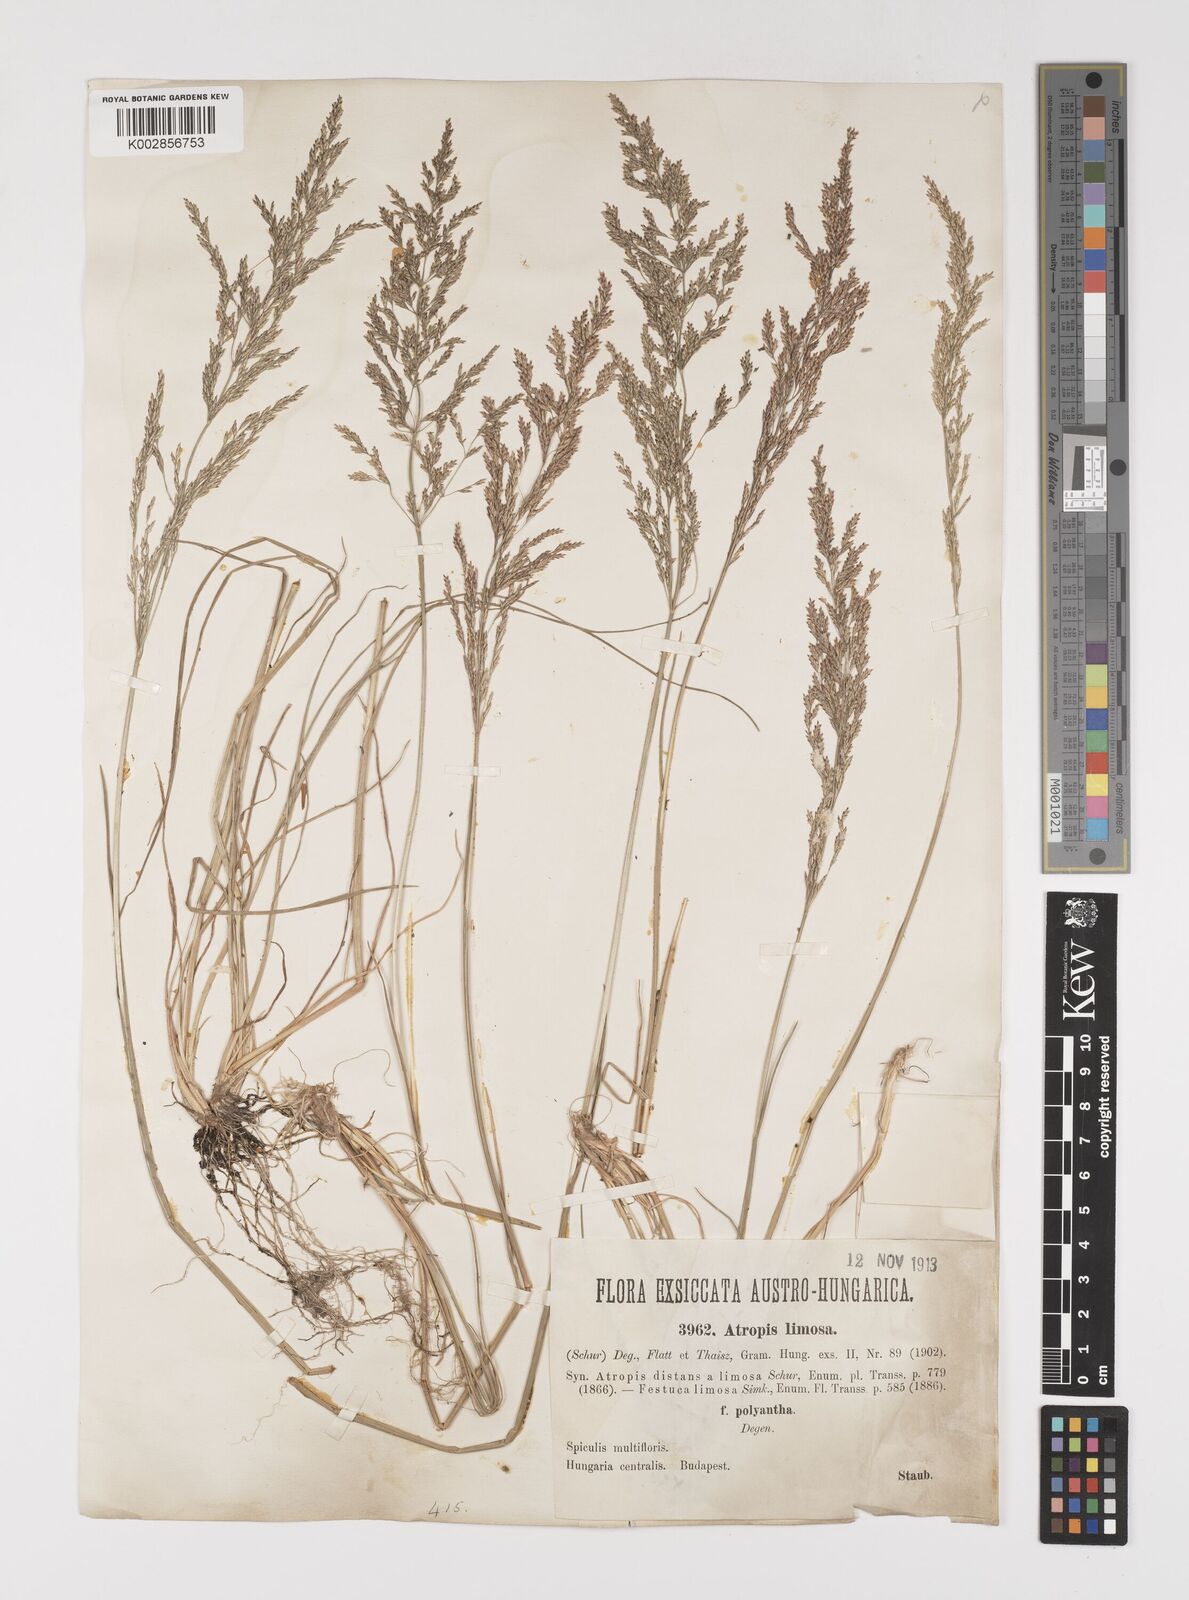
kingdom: Plantae
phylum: Tracheophyta
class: Liliopsida
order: Poales
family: Poaceae
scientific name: Poaceae
